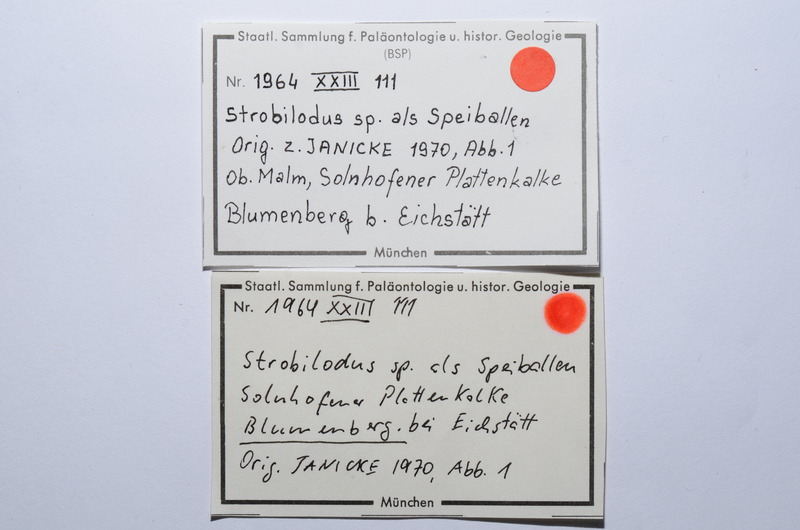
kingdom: Animalia
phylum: Chordata
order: Amiiformes
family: Caturidae
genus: Caturus
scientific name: Caturus
